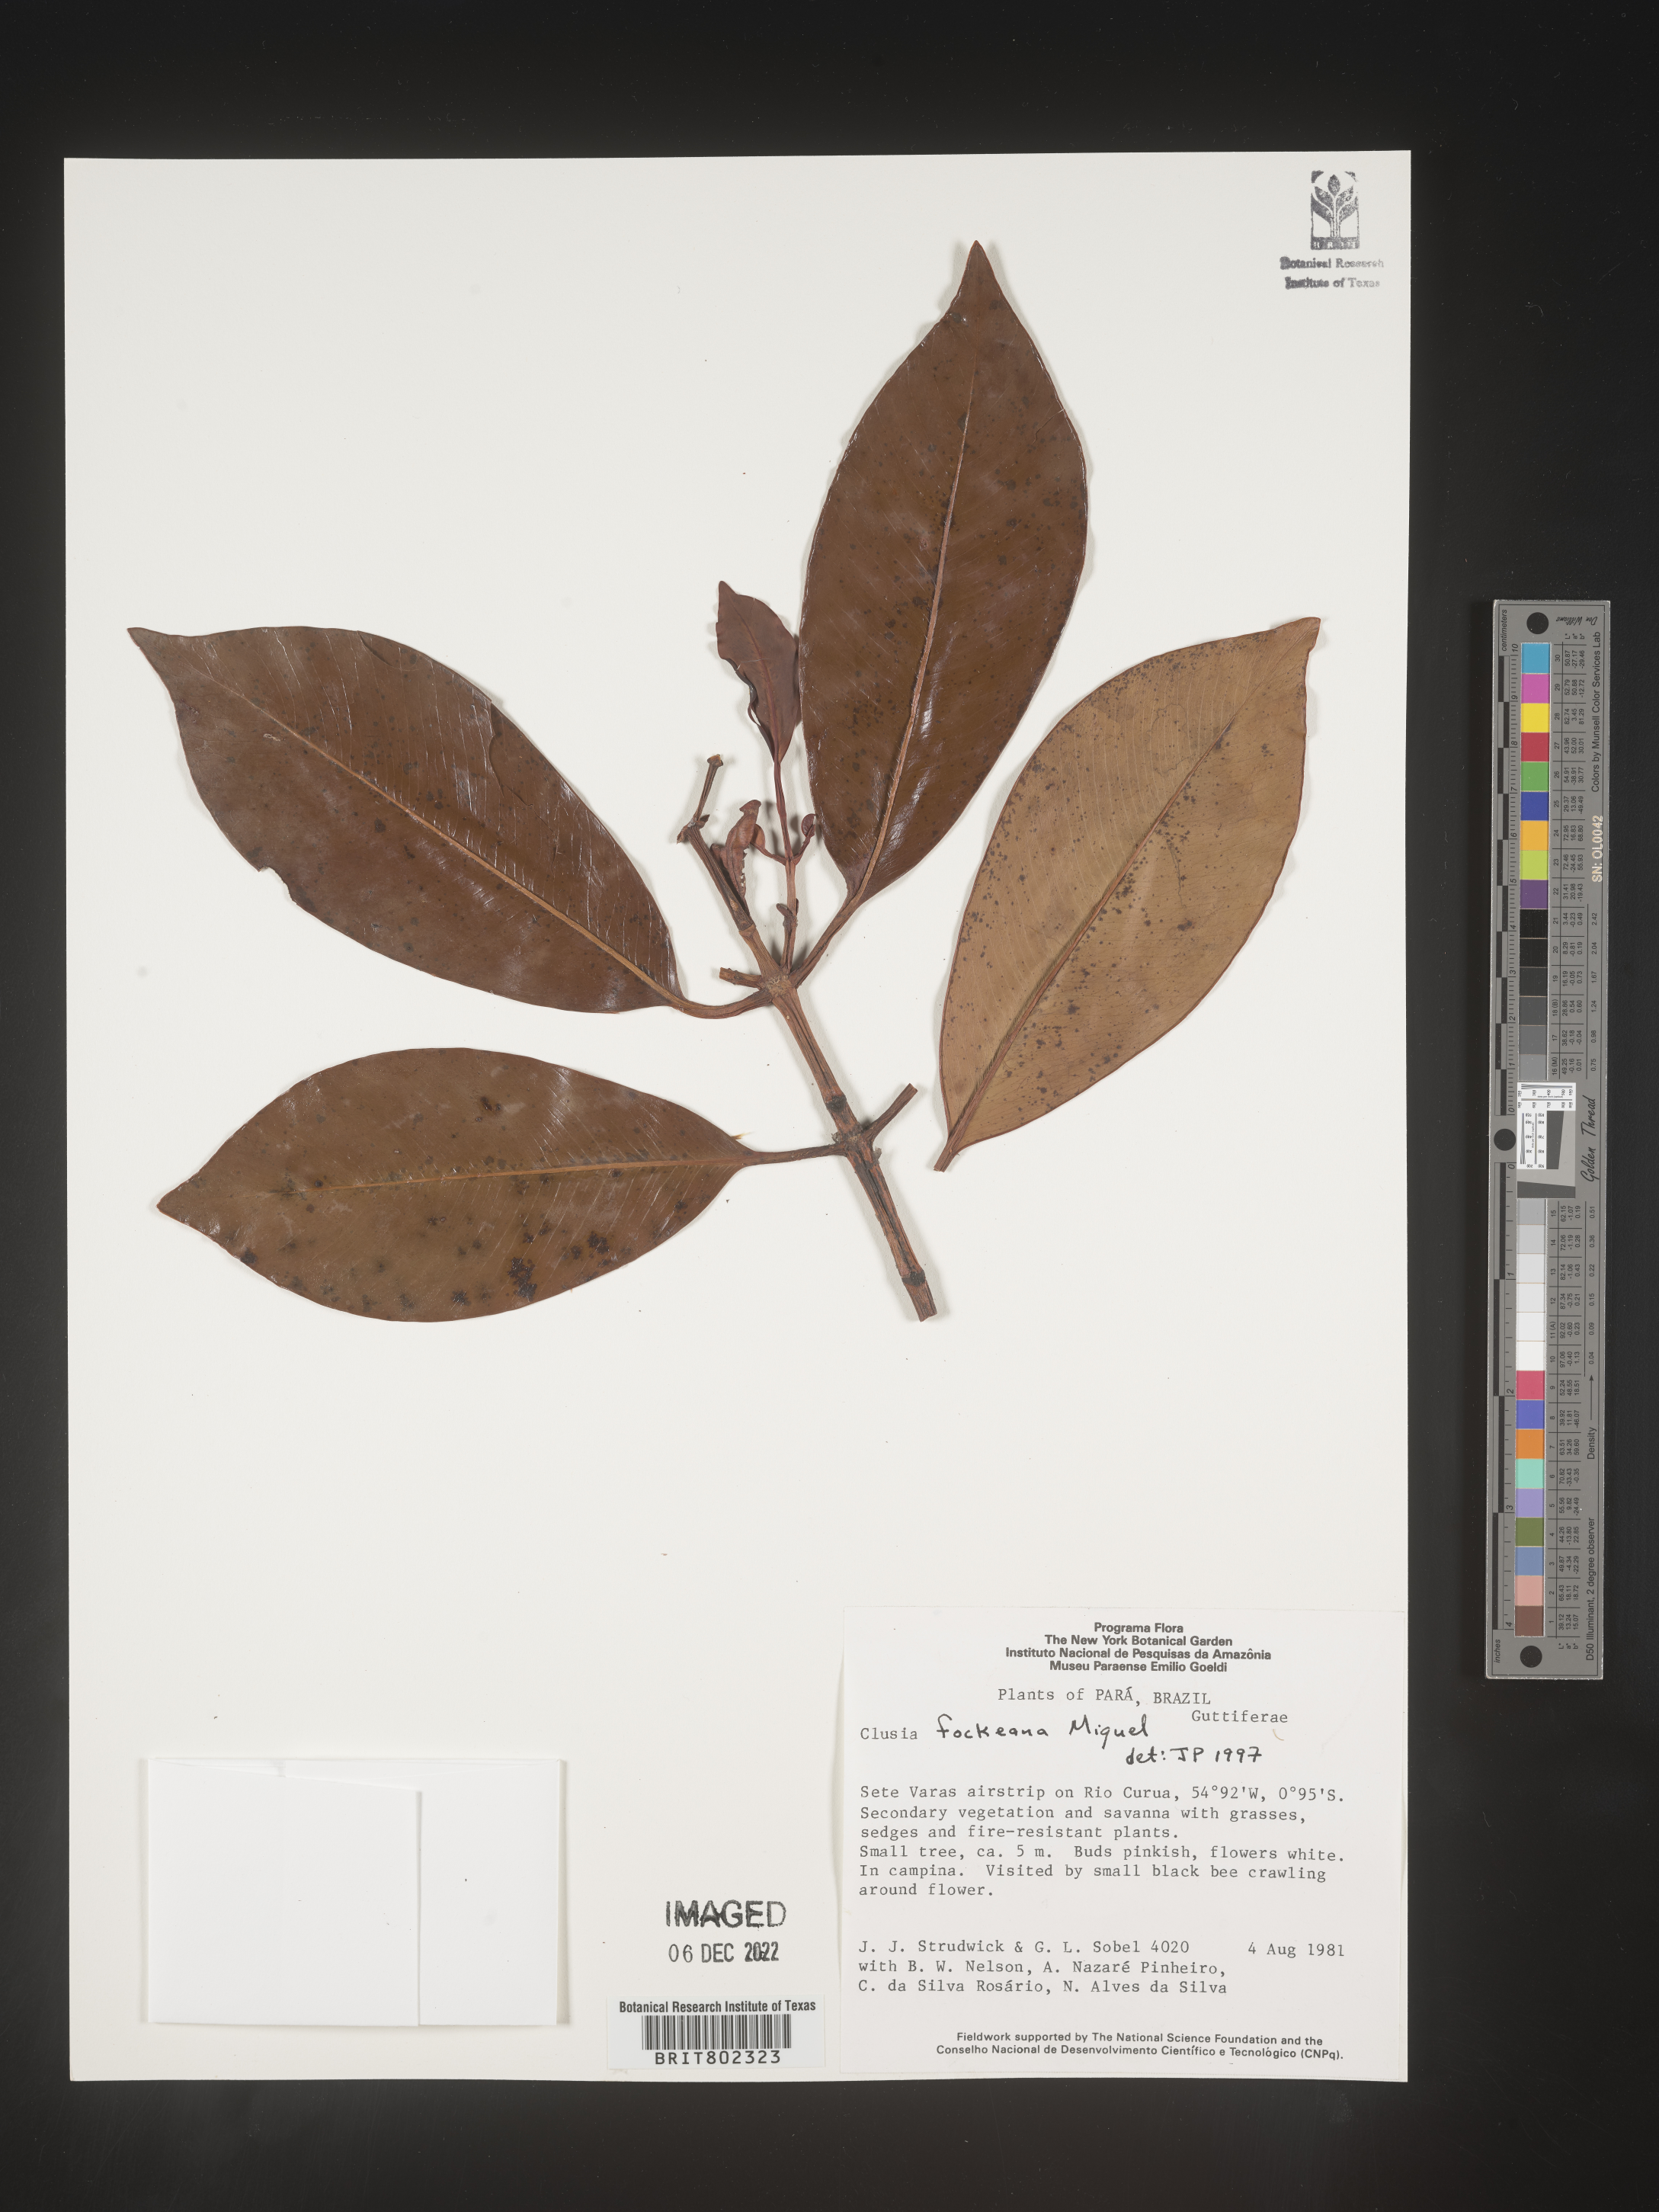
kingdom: Plantae
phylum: Tracheophyta
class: Magnoliopsida
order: Malpighiales
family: Clusiaceae
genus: Clusia
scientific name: Clusia
